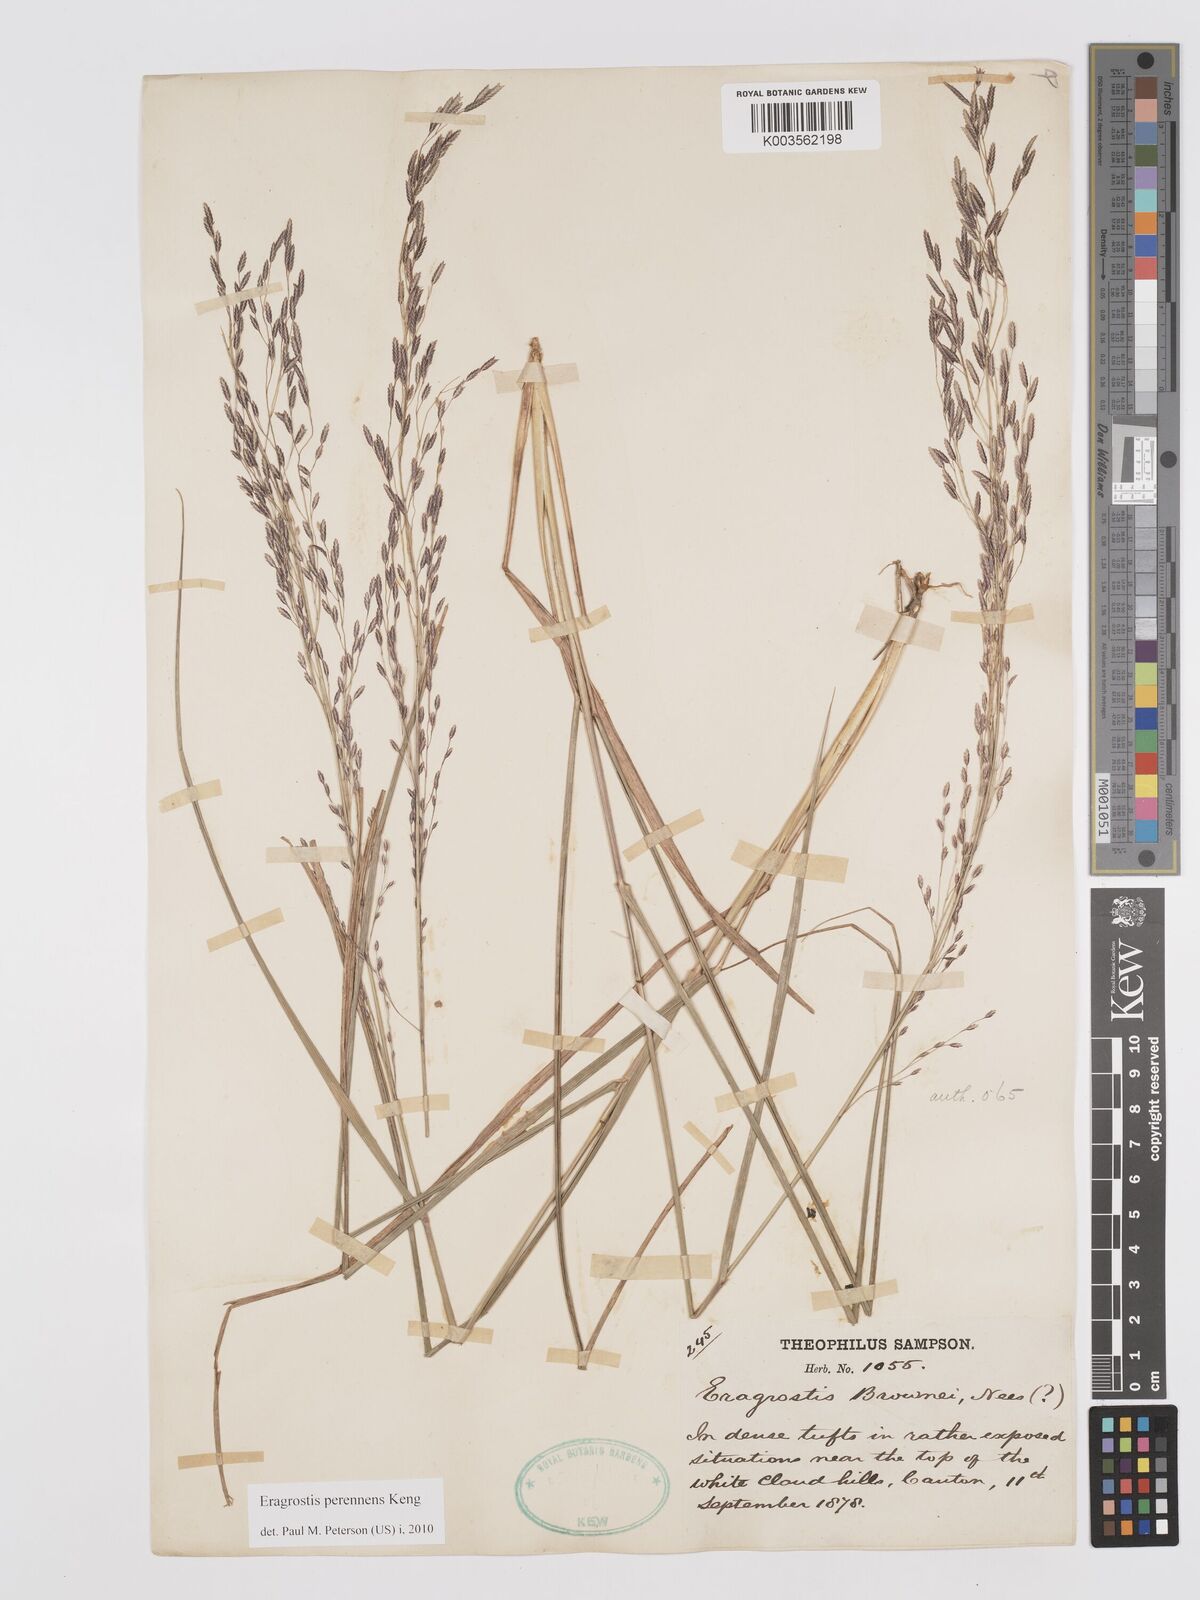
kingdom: Plantae
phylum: Tracheophyta
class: Liliopsida
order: Poales
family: Poaceae
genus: Eragrostis
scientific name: Eragrostis perennans
